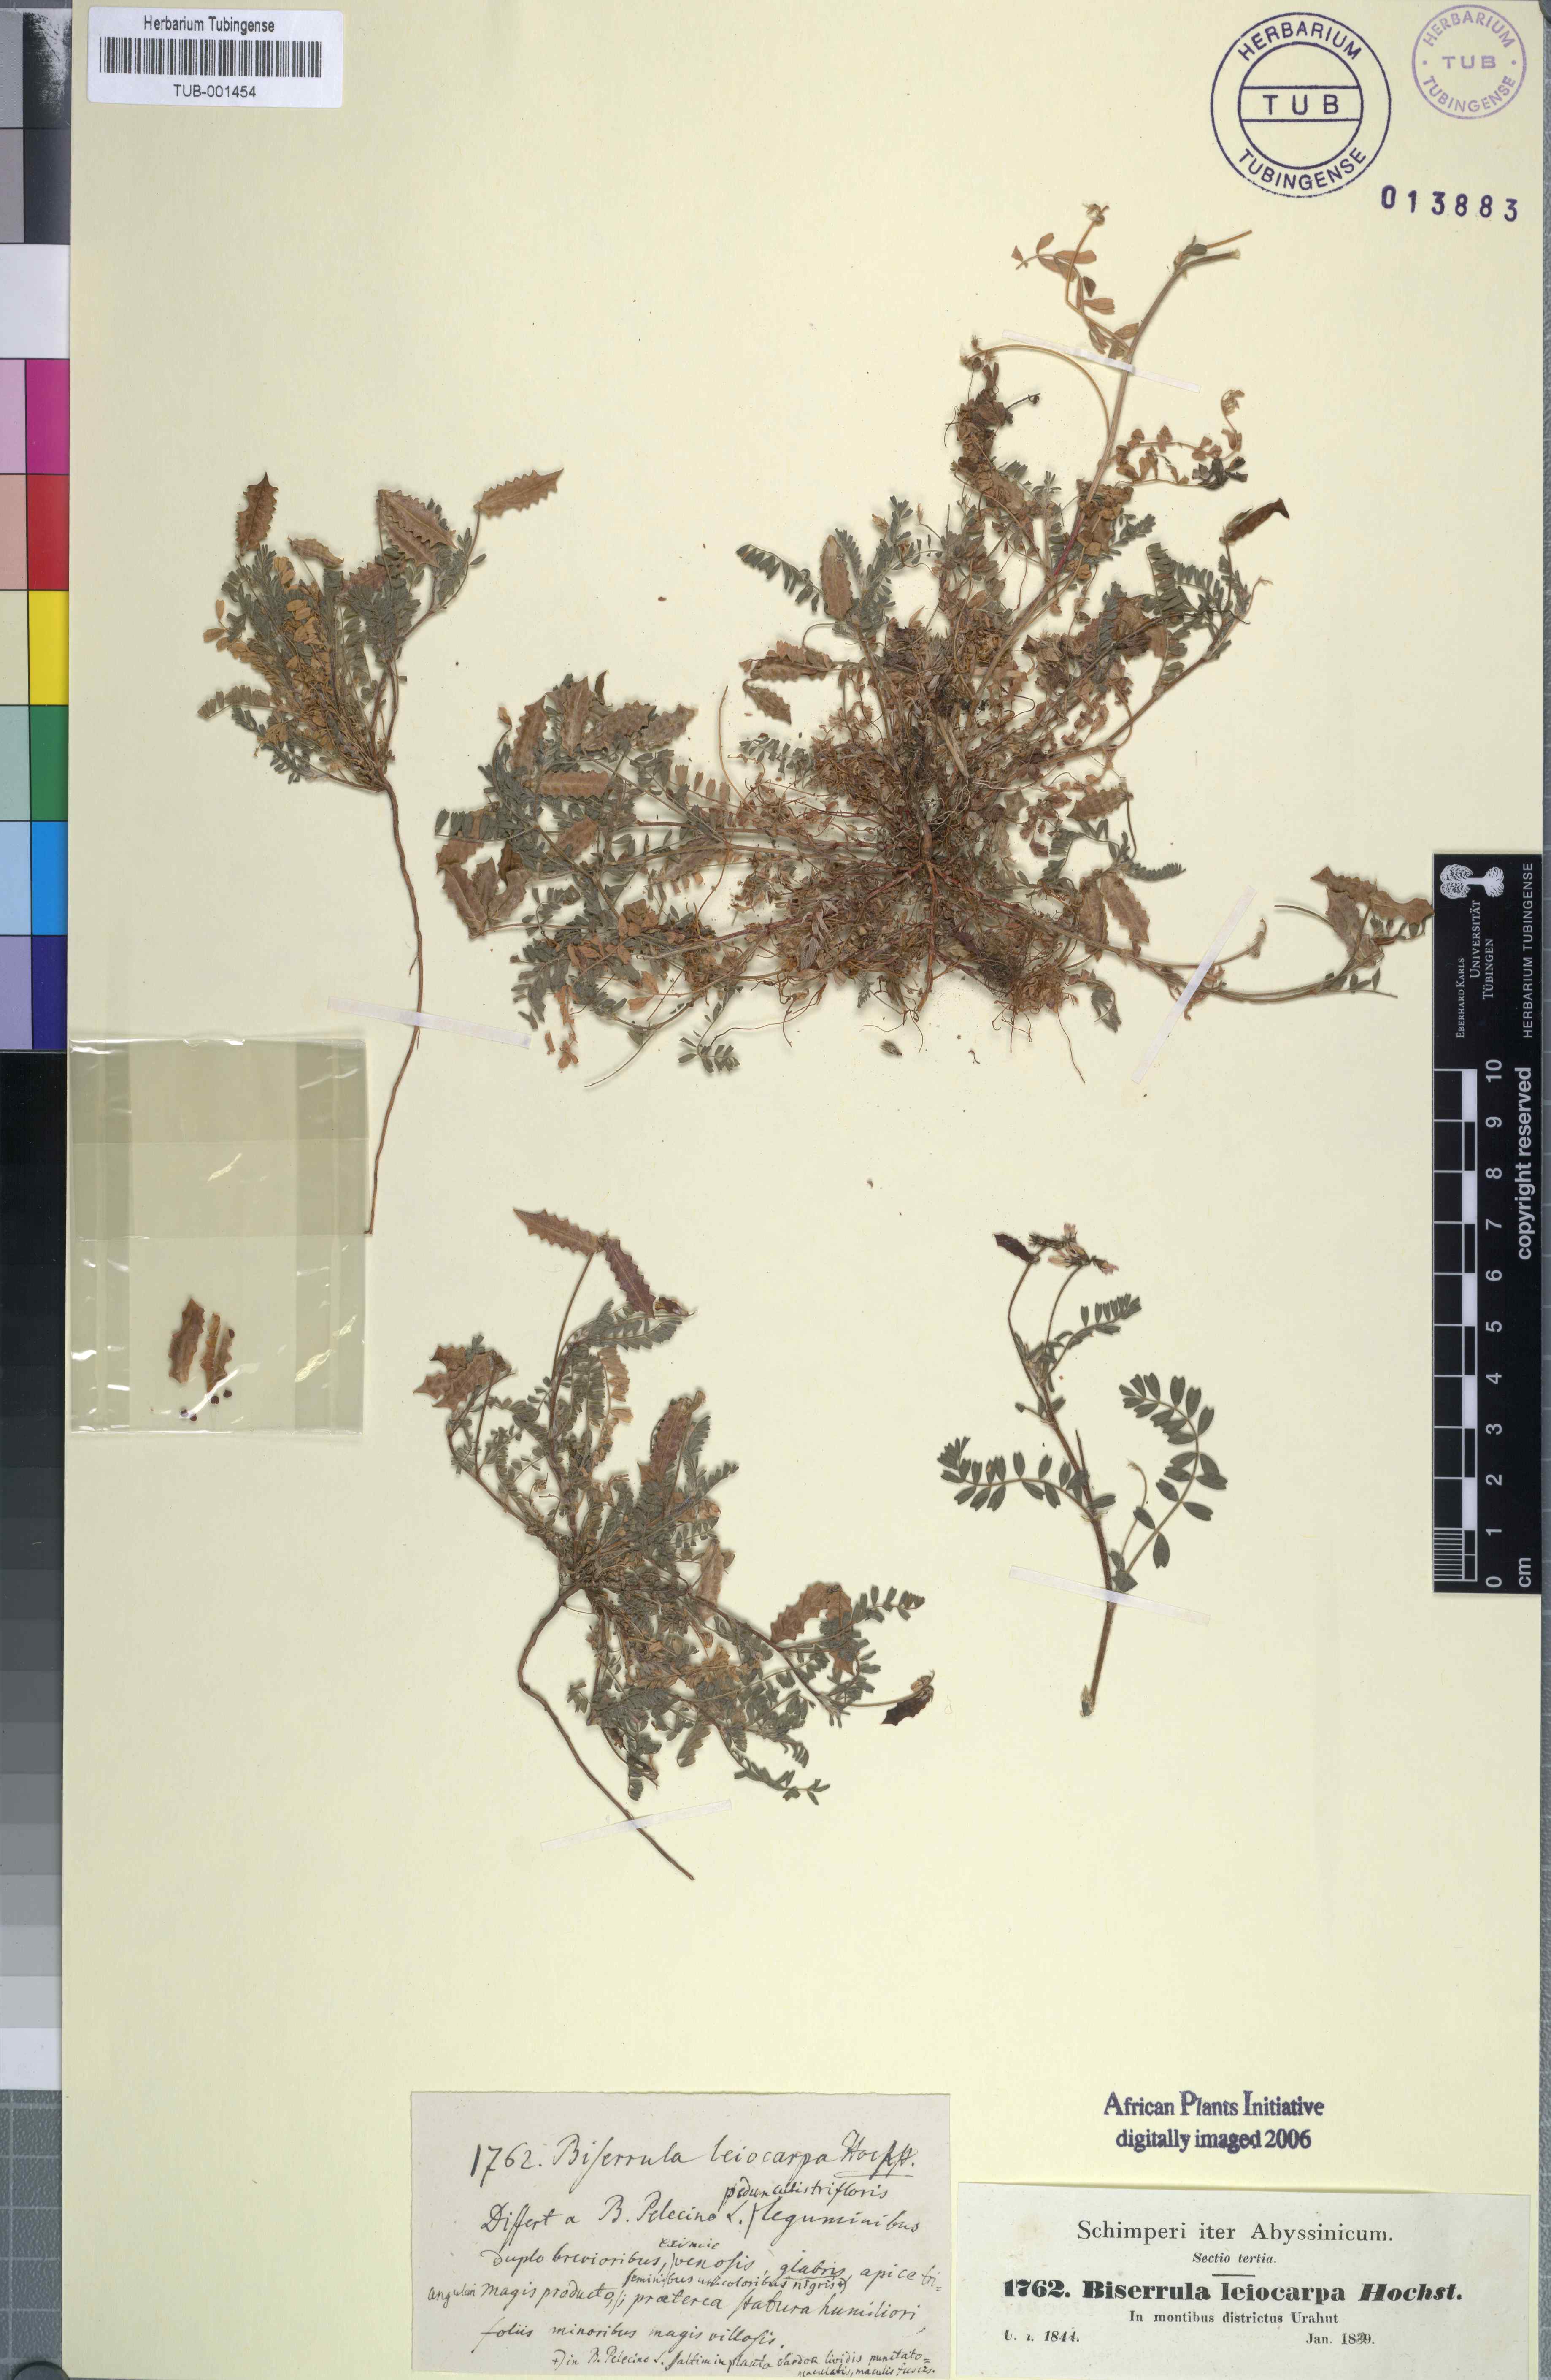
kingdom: Plantae
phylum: Tracheophyta
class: Magnoliopsida
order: Fabales
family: Fabaceae
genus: Biserrula
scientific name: Biserrula pelecinus
